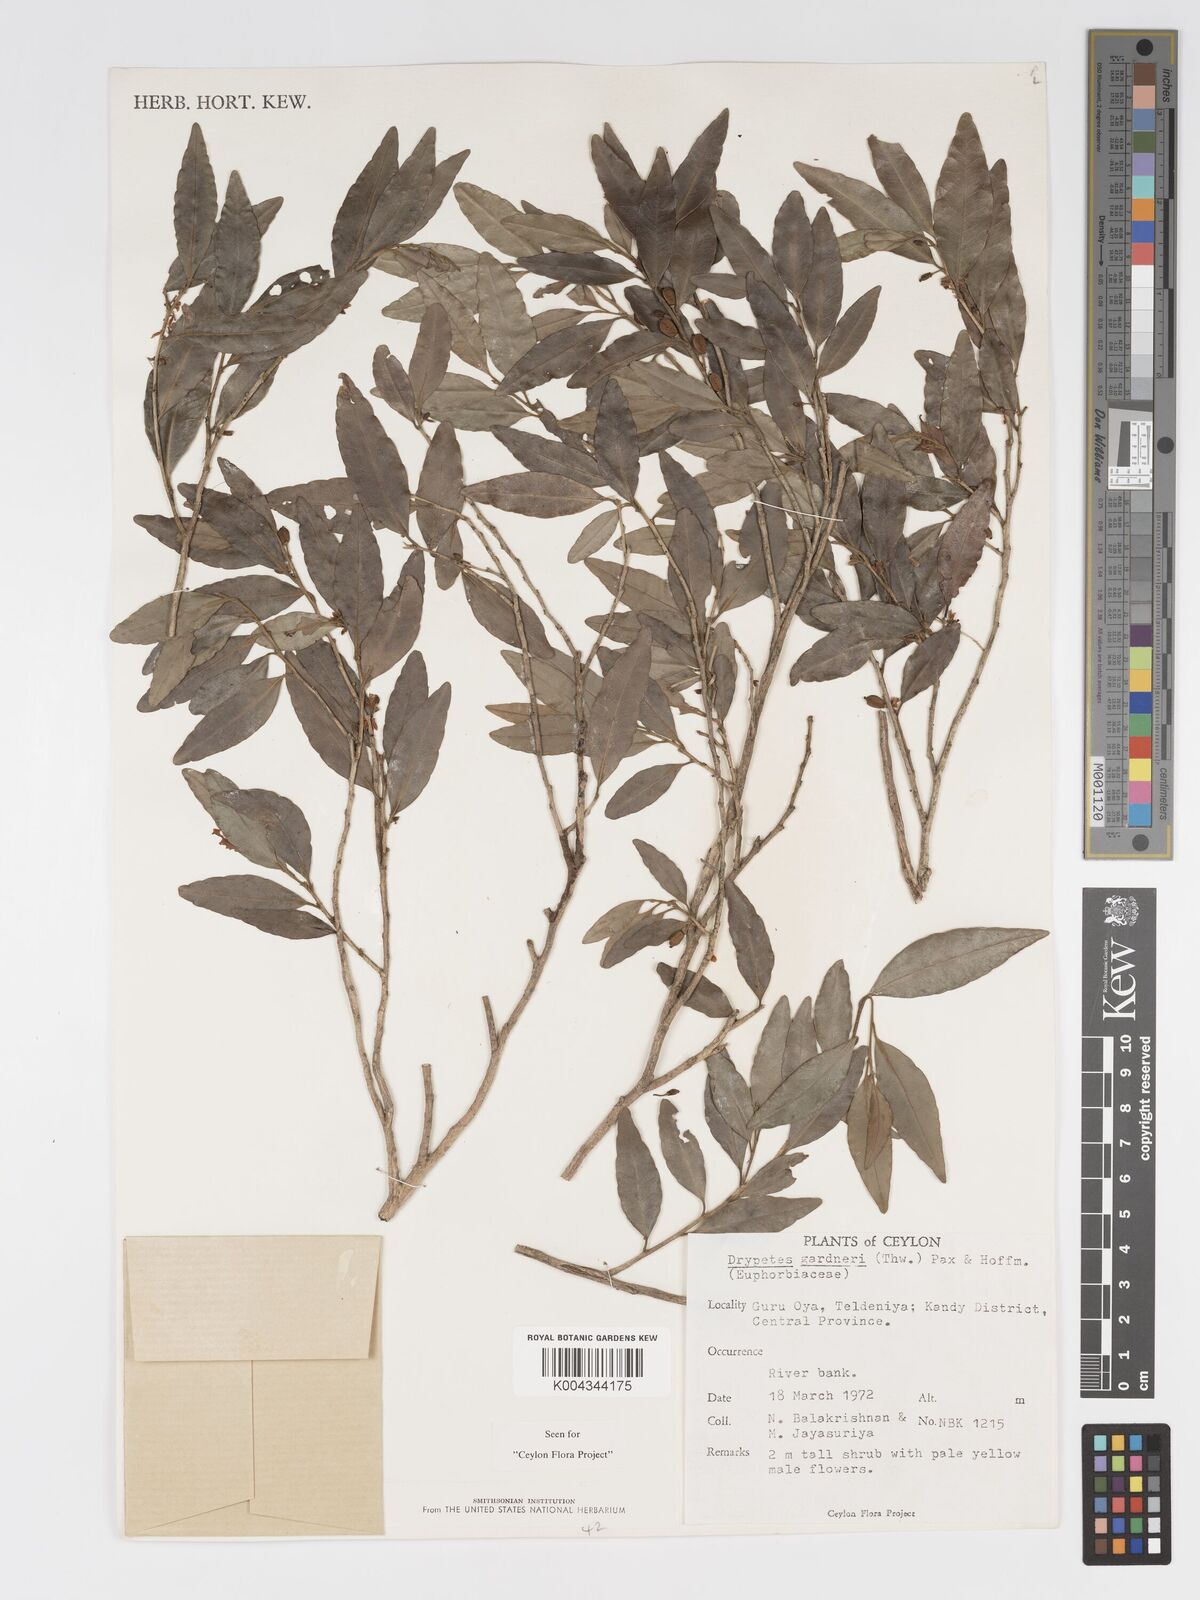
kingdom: Plantae
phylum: Tracheophyta
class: Magnoliopsida
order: Malpighiales
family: Putranjivaceae
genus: Drypetes
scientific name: Drypetes gardneri
